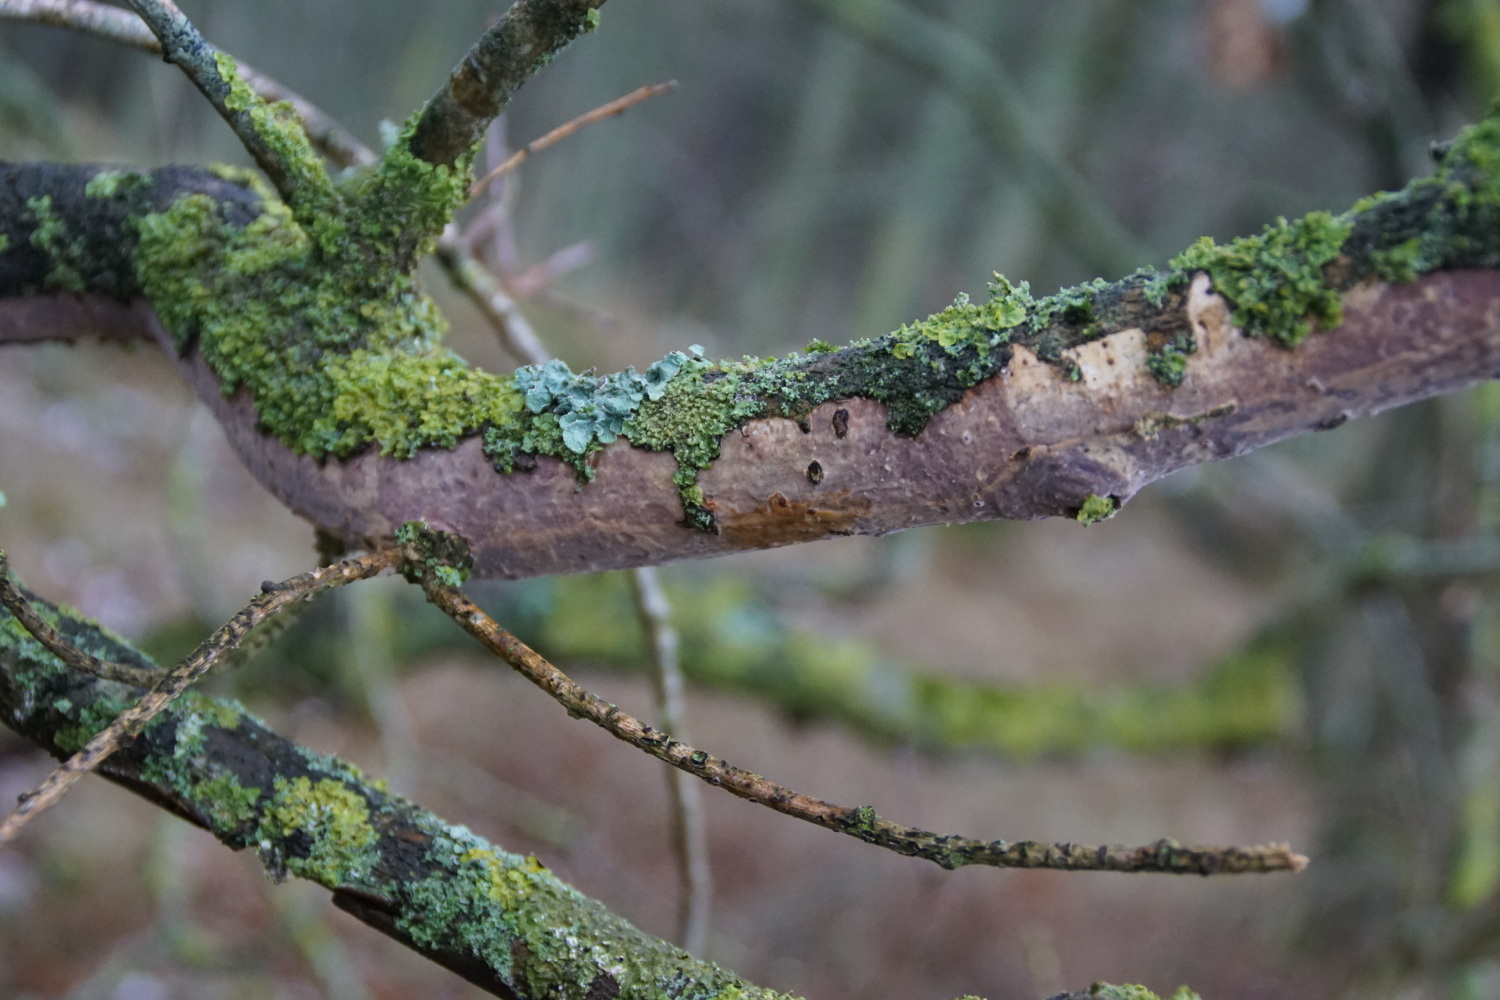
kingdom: Fungi
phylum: Basidiomycota
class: Agaricomycetes
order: Corticiales
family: Vuilleminiaceae
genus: Vuilleminia
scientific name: Vuilleminia comedens
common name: almindelig barksprænger
